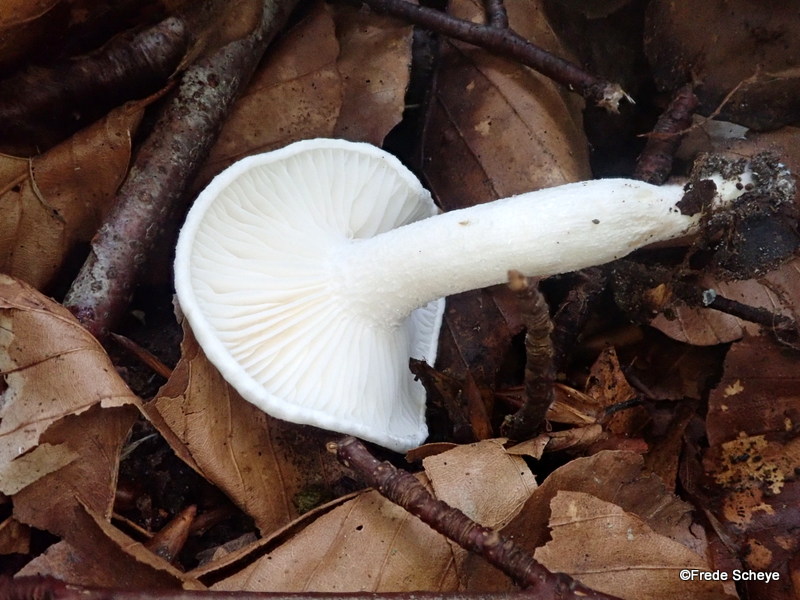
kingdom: Fungi
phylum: Basidiomycota
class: Agaricomycetes
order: Agaricales
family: Hygrophoraceae
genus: Hygrophorus
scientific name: Hygrophorus eburneus
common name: elfenbens-sneglehat
